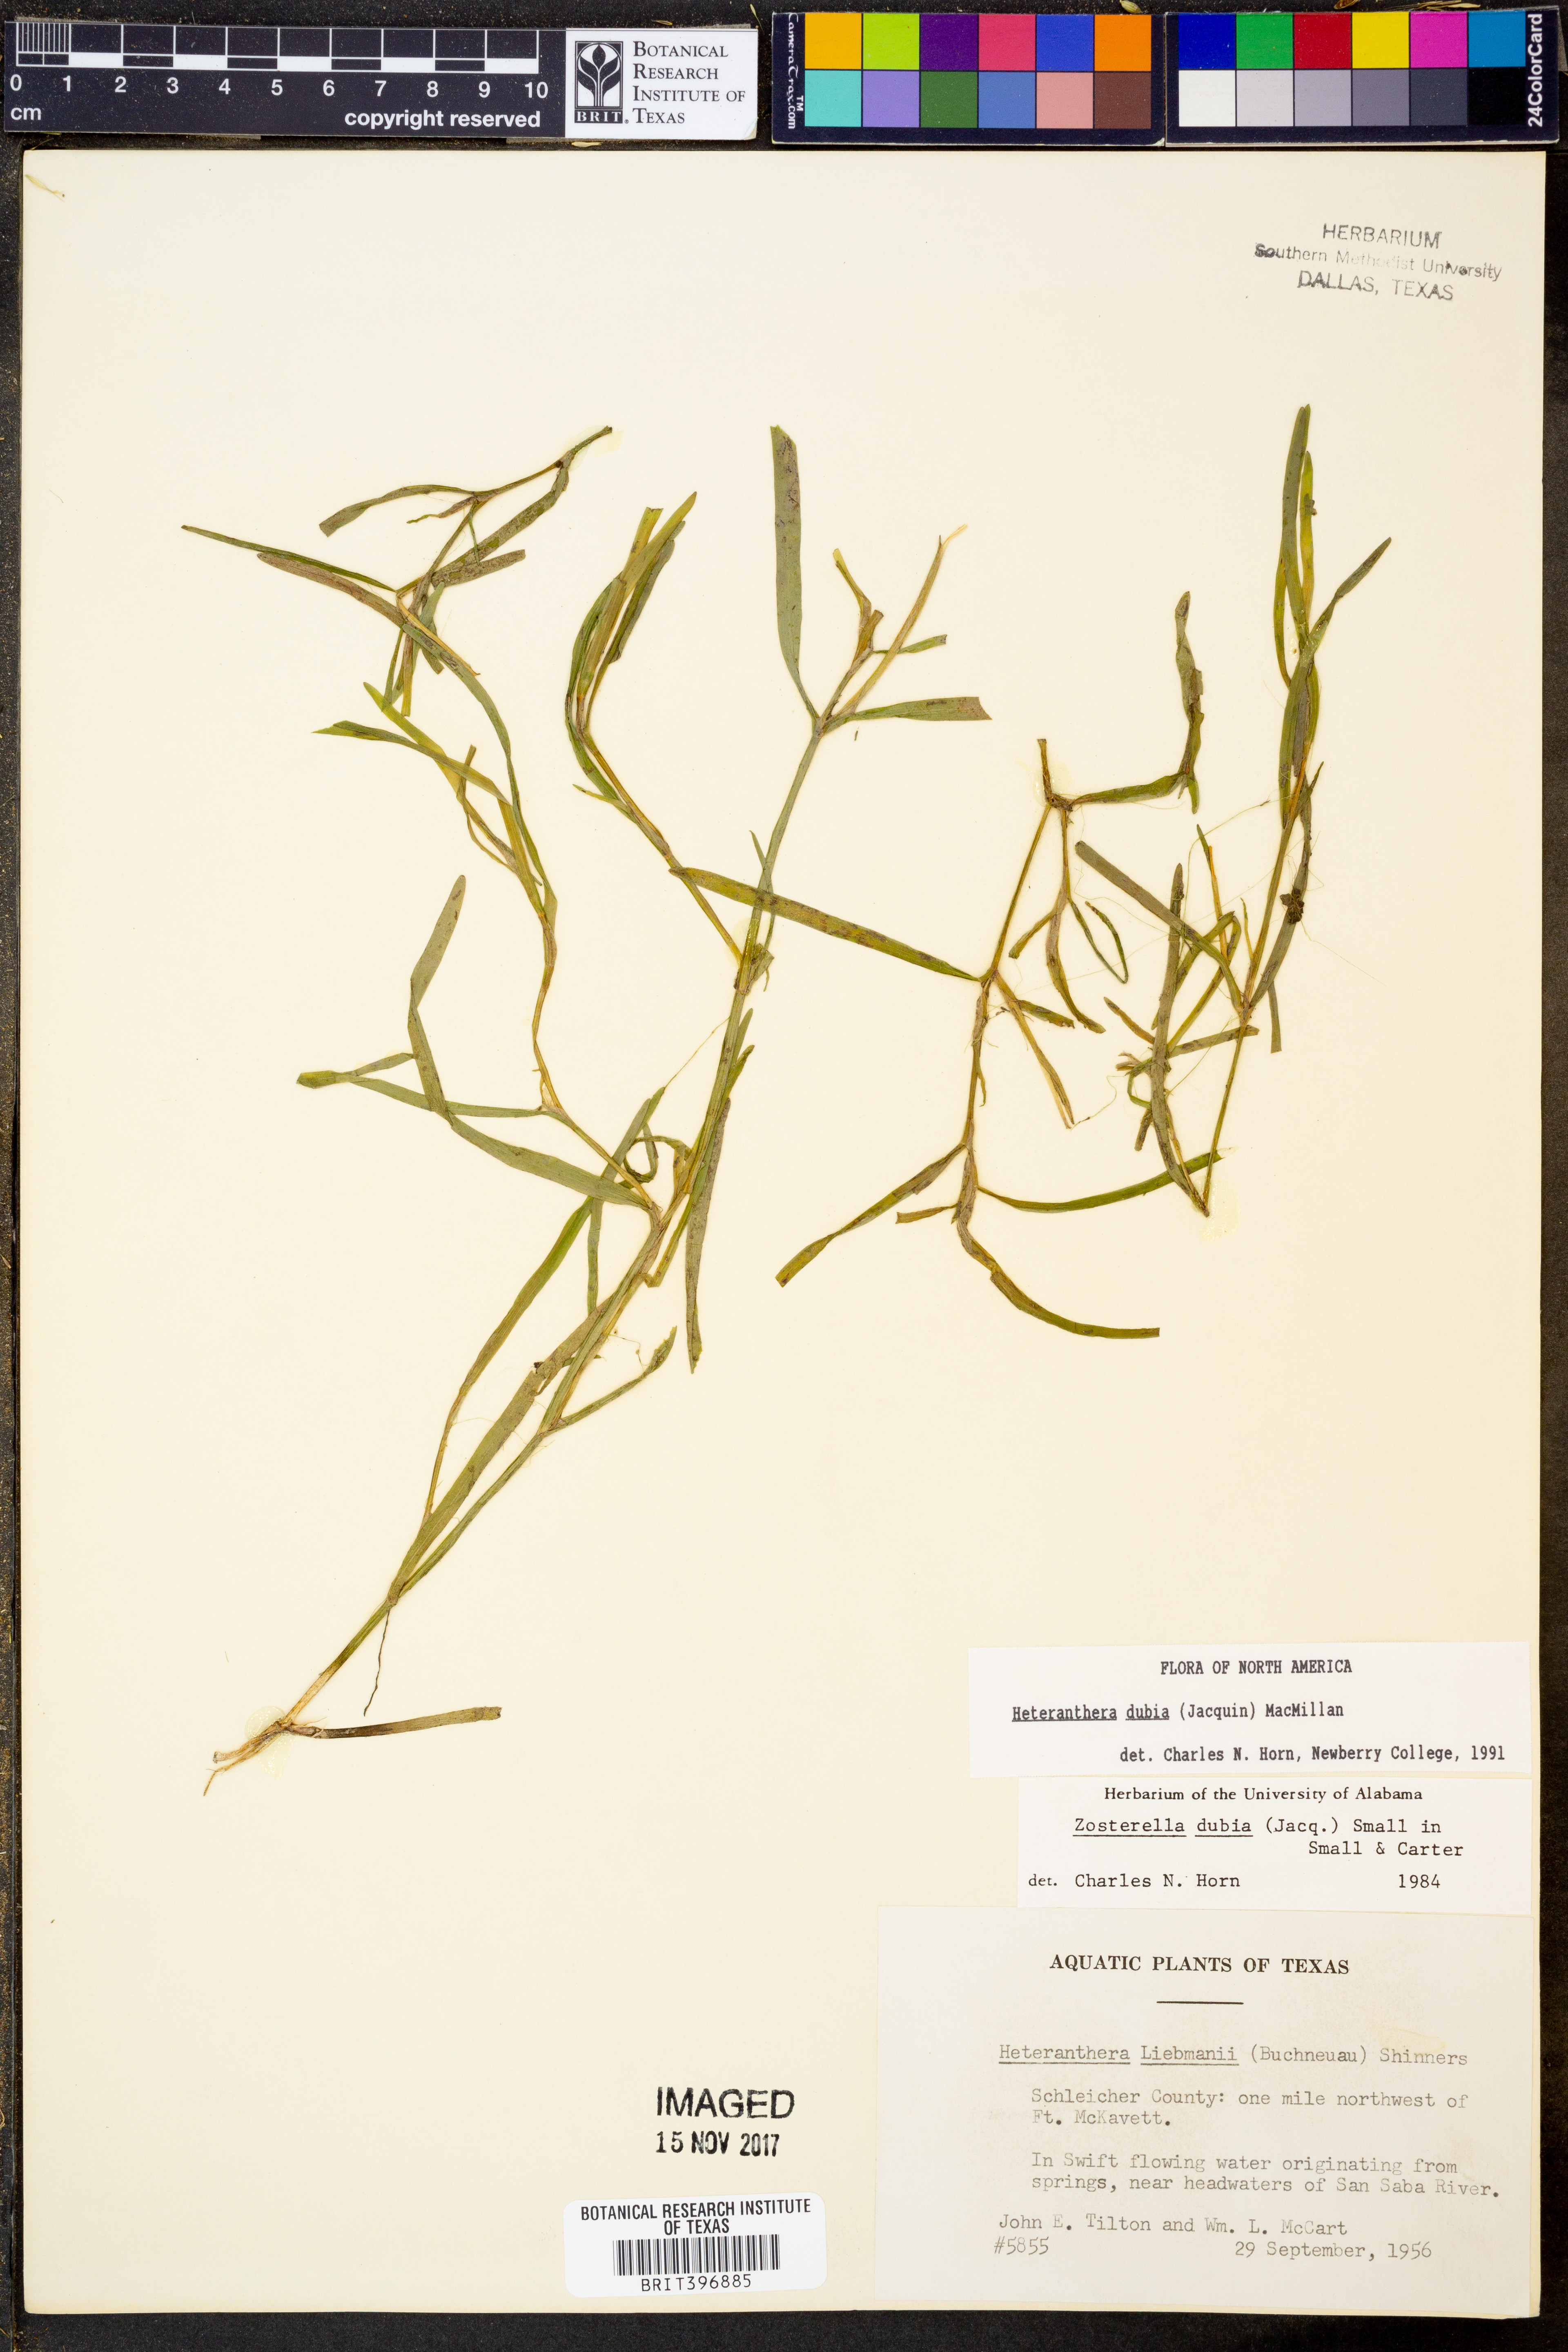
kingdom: Plantae
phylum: Tracheophyta
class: Liliopsida
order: Commelinales
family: Pontederiaceae
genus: Heteranthera
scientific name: Heteranthera dubia
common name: Grass-leaved mud plantain
